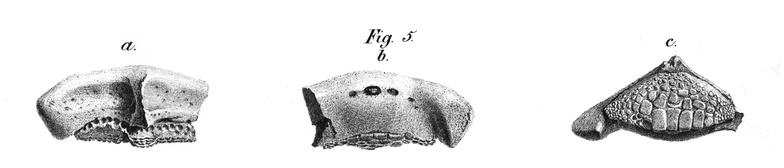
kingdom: Animalia
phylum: Chordata
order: Perciformes
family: Labridae
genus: Labrodon
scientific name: Labrodon multidens
